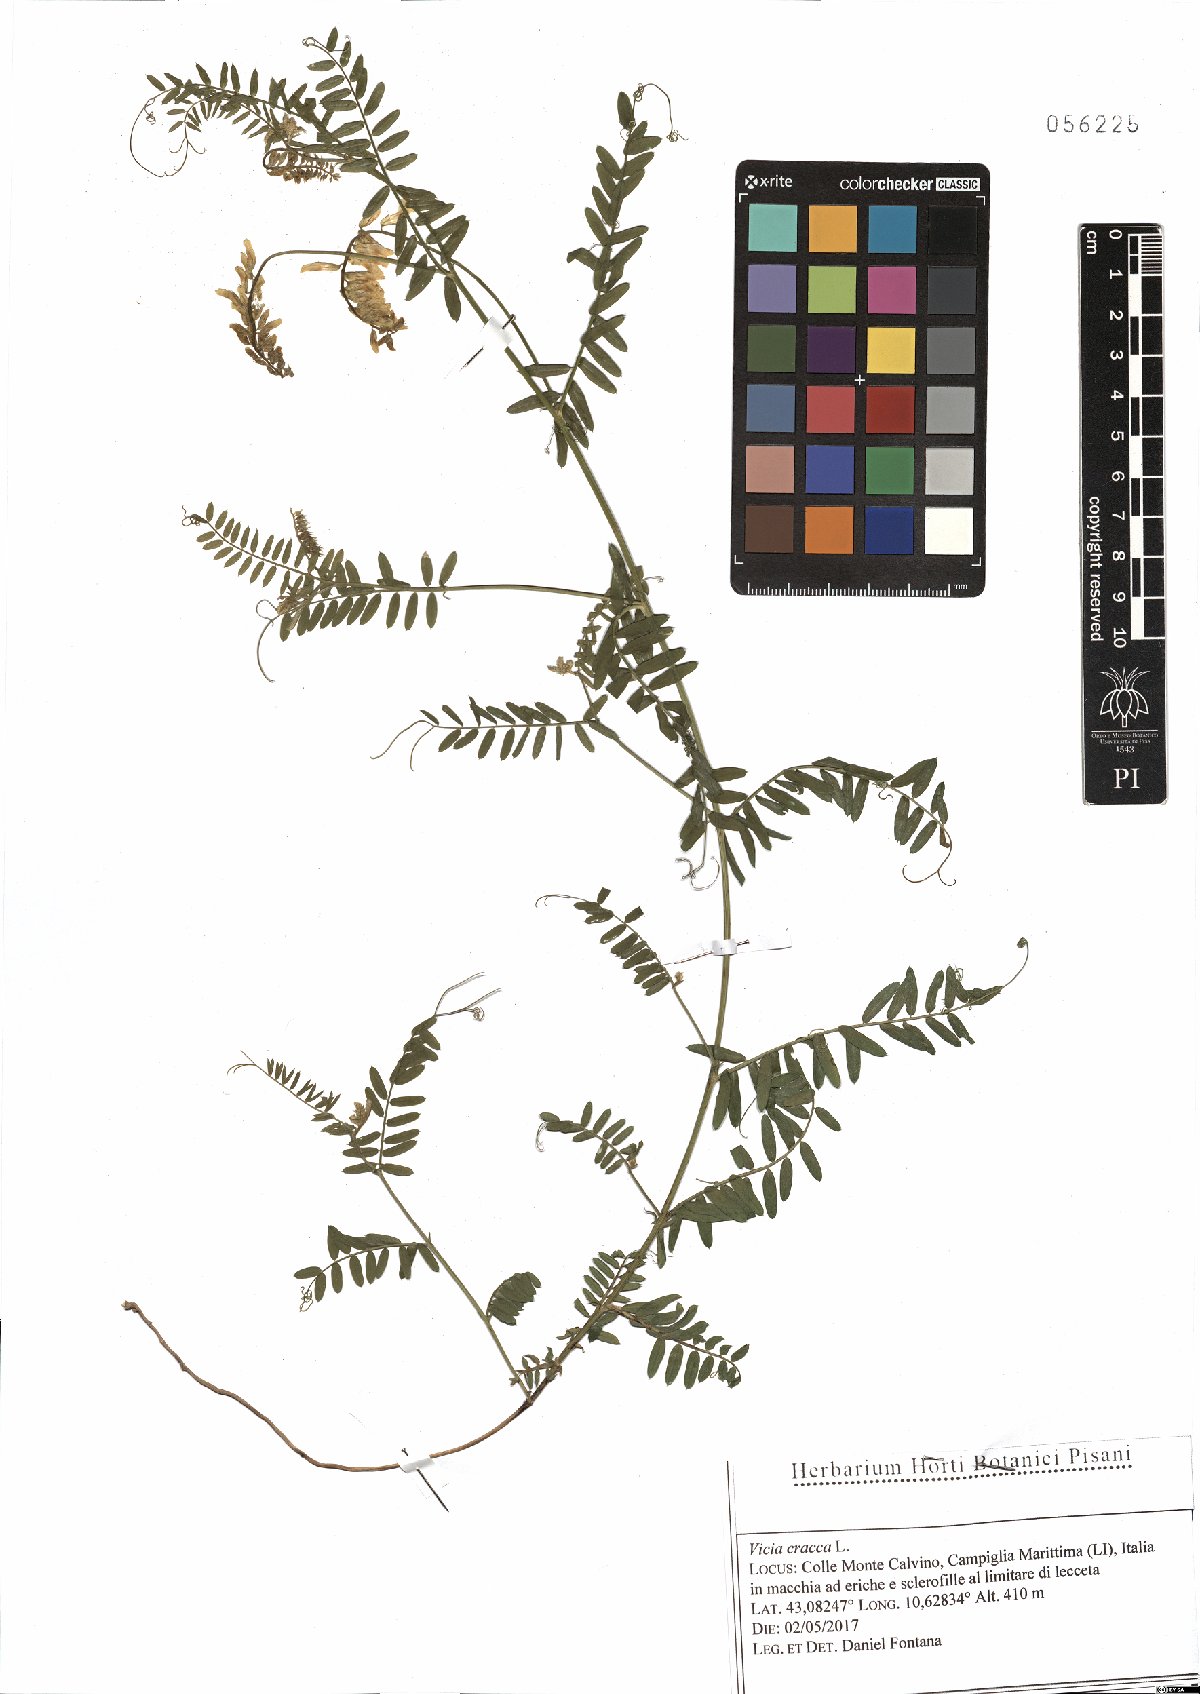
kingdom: Plantae
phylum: Tracheophyta
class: Magnoliopsida
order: Fabales
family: Fabaceae
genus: Vicia
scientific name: Vicia cracca
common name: Bird vetch
